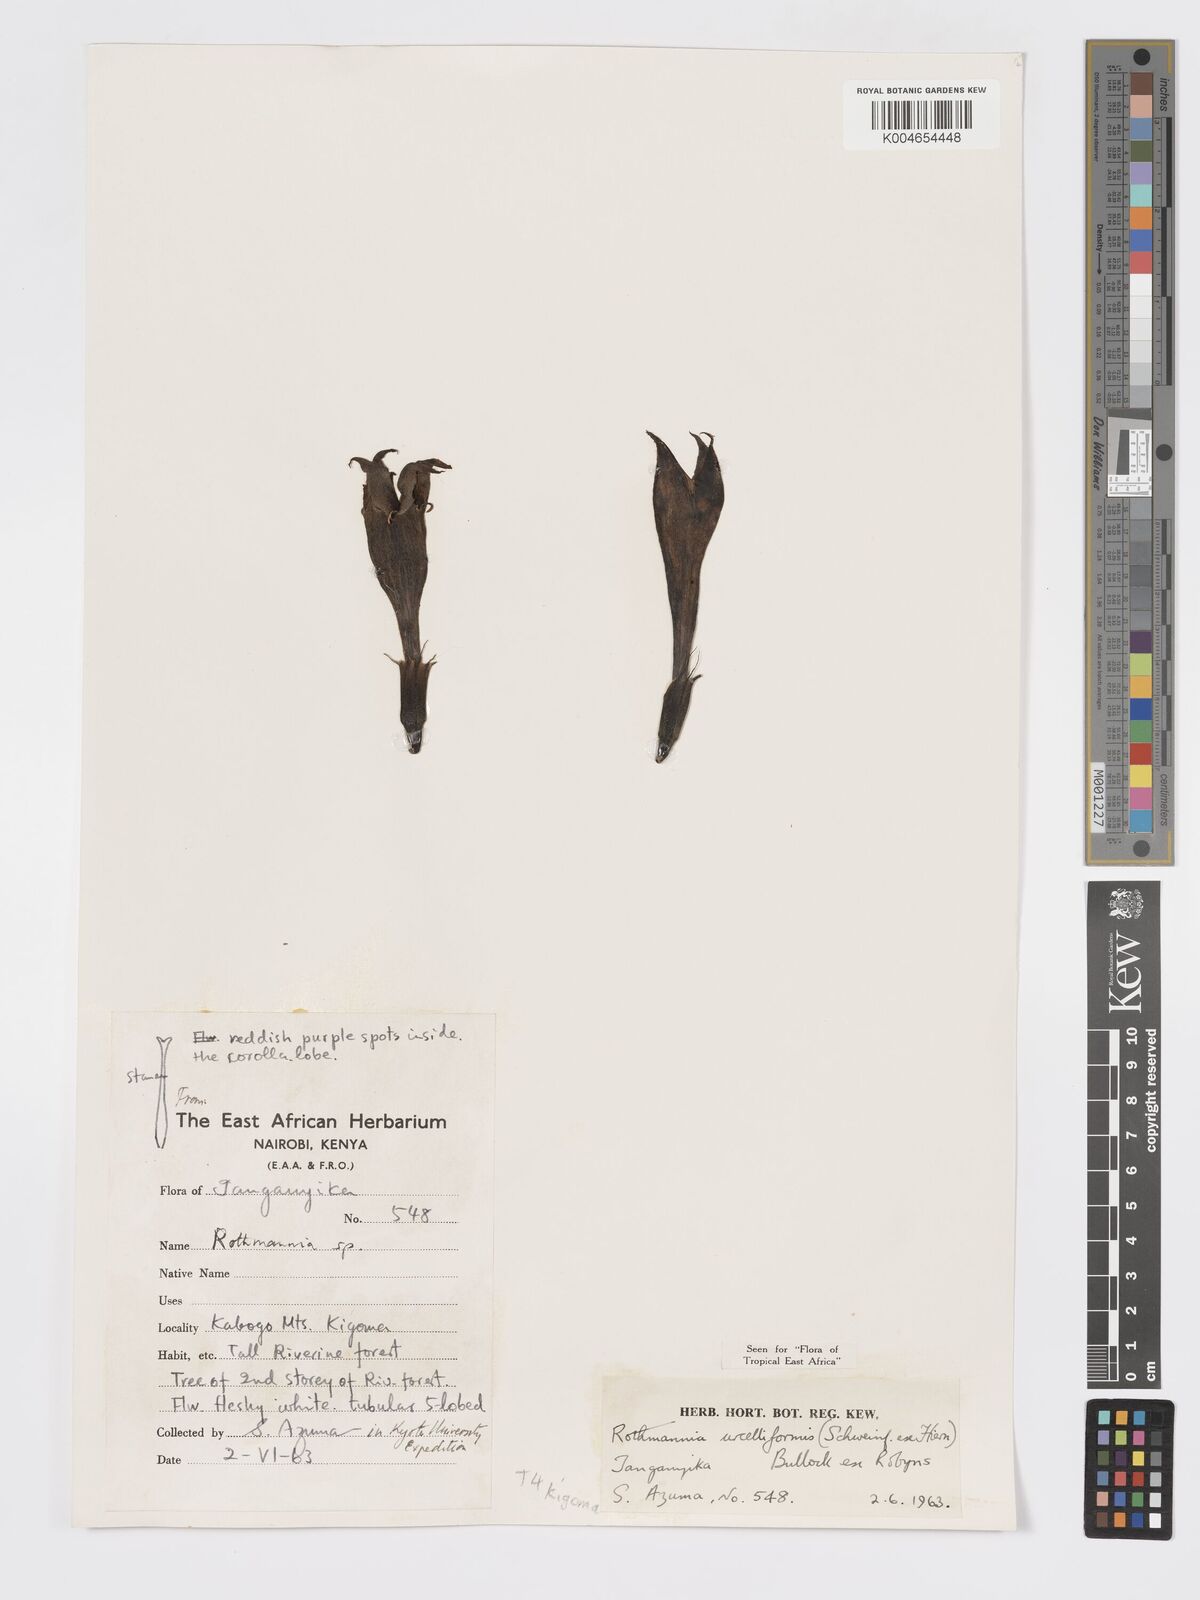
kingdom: Plantae
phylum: Tracheophyta
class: Magnoliopsida
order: Gentianales
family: Rubiaceae
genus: Rothmannia
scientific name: Rothmannia urcelliformis
